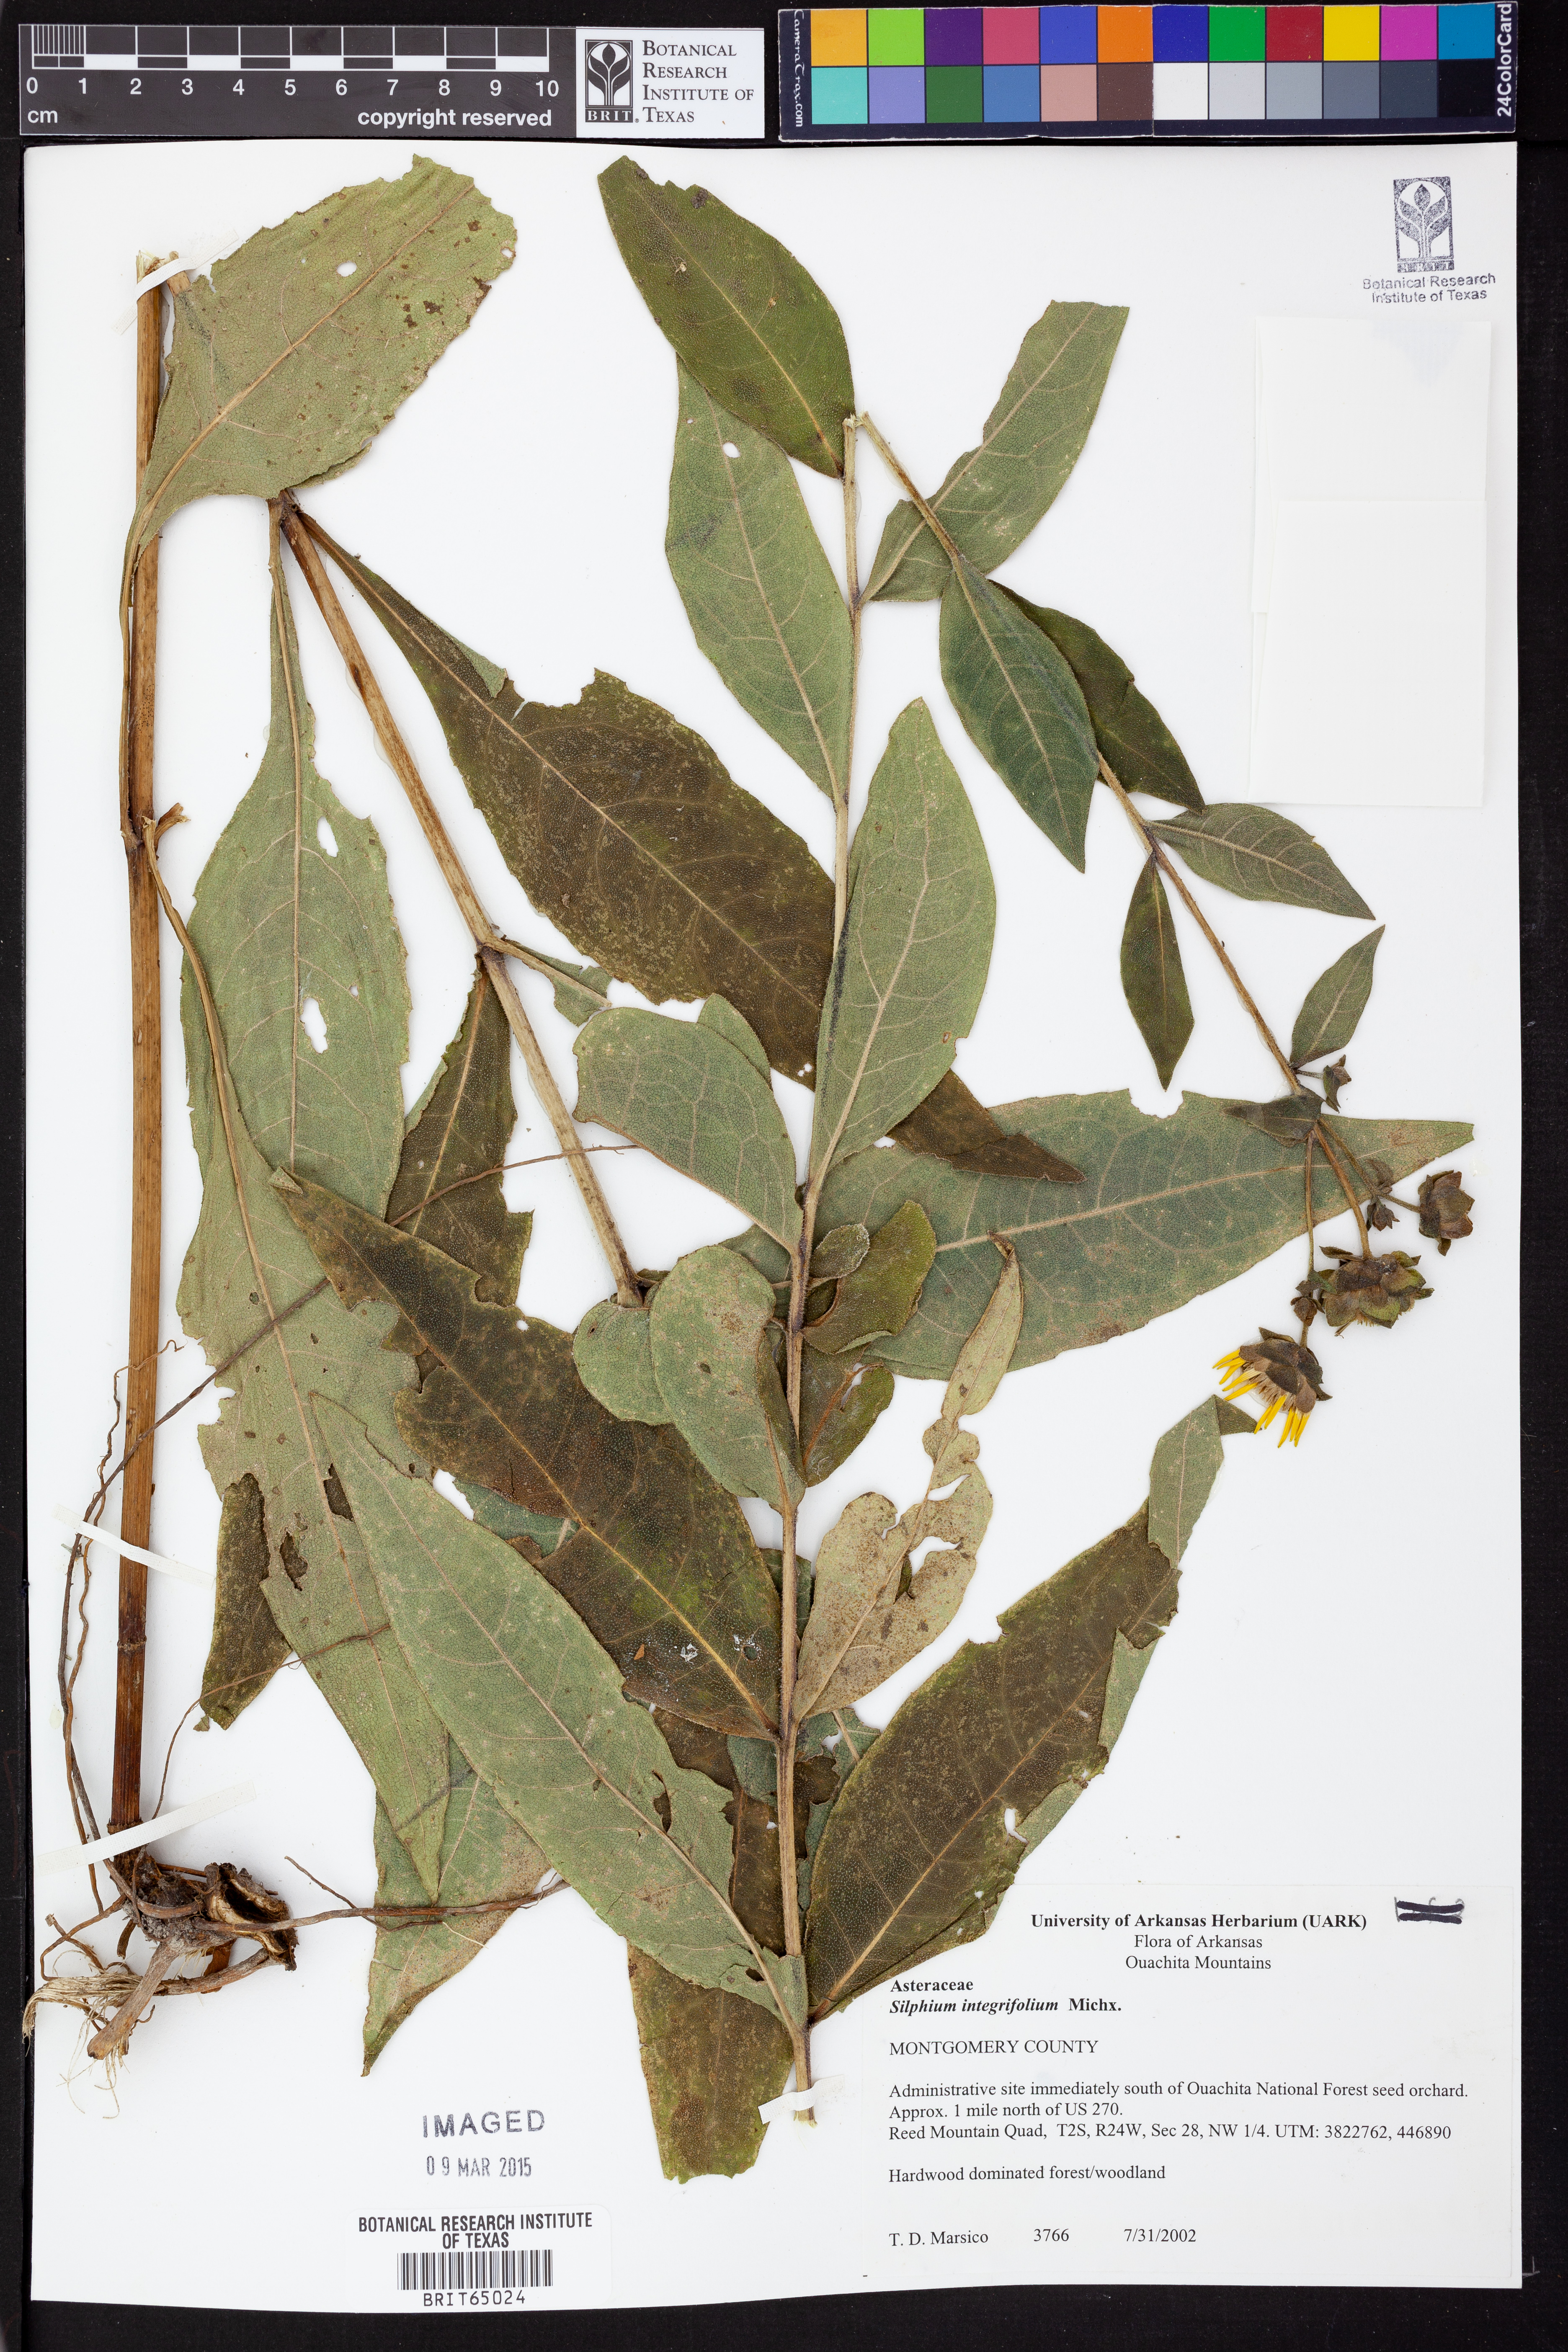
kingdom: Plantae
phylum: Tracheophyta
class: Magnoliopsida
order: Asterales
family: Asteraceae
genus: Silphium
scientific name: Silphium integrifolium
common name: Whole-leaf rosinweed
